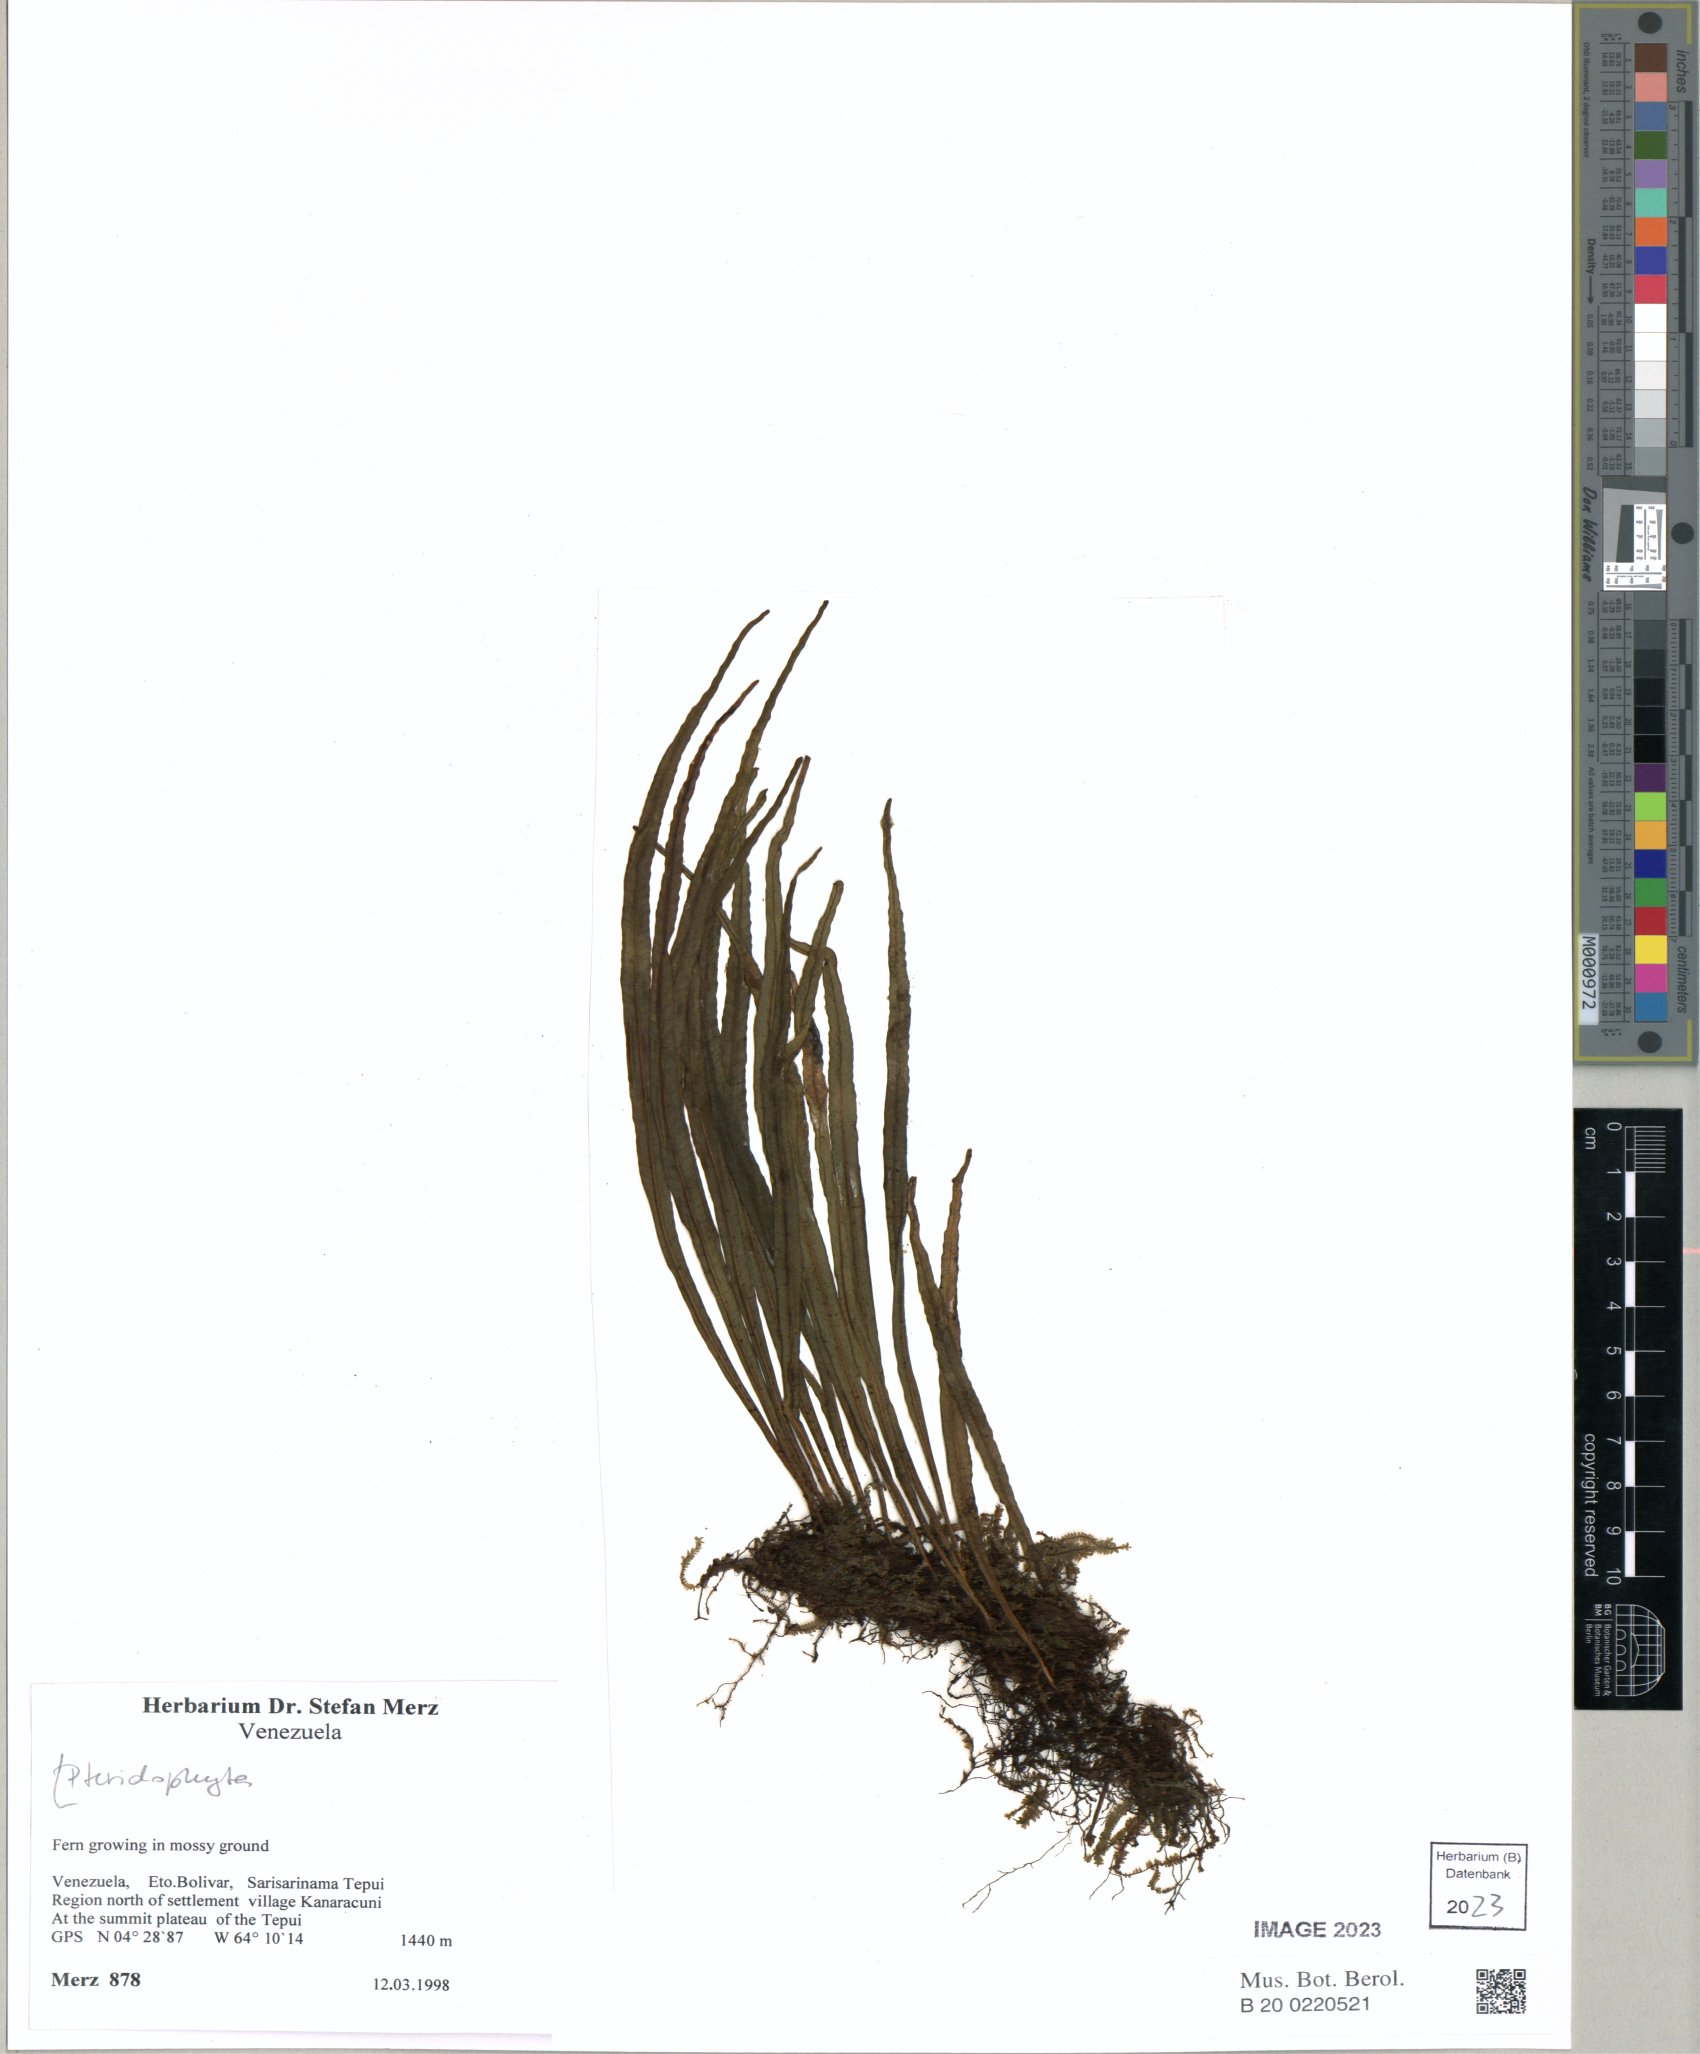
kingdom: Plantae
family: Pteridophyta
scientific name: Pteridophyta
